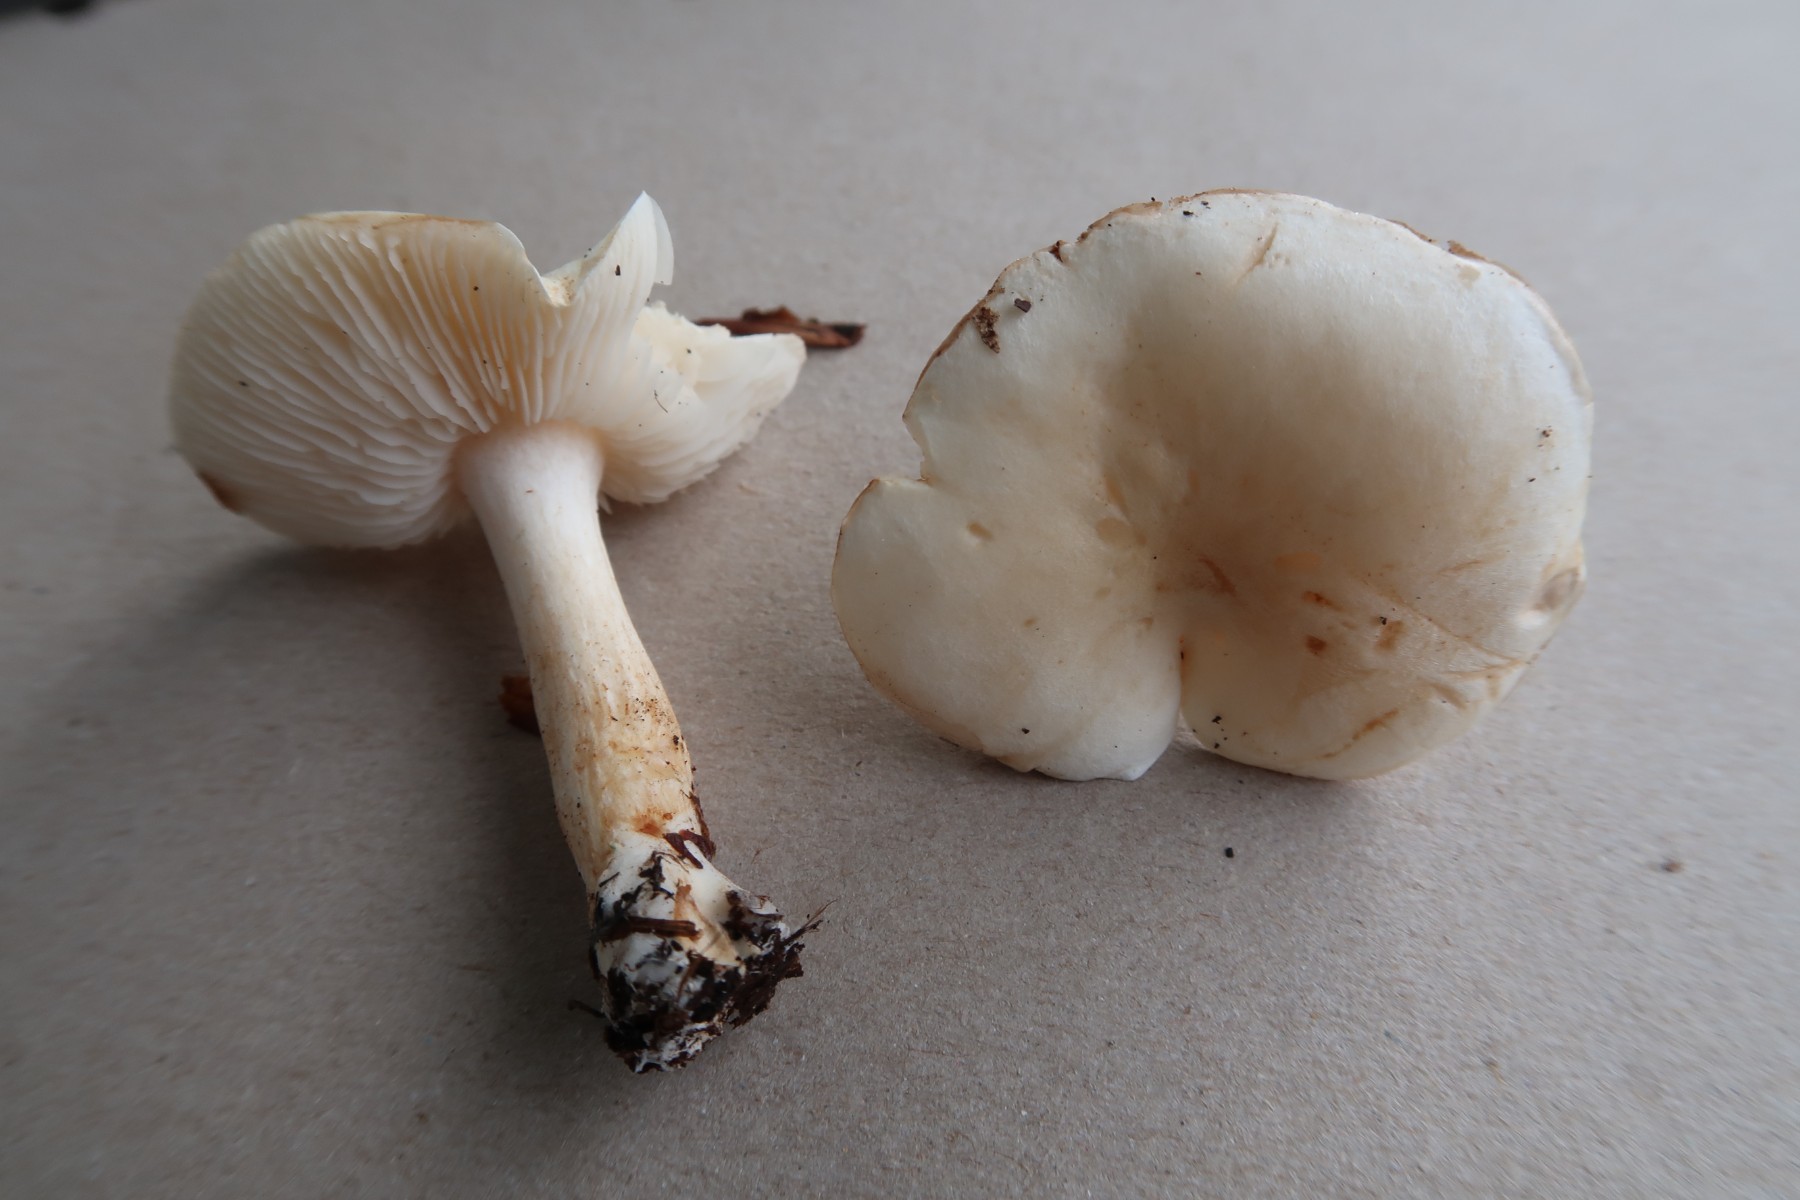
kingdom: Fungi
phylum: Basidiomycota
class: Agaricomycetes
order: Agaricales
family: Tricholomataceae
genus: Tricholoma
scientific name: Tricholoma album
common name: honning-ridderhat
